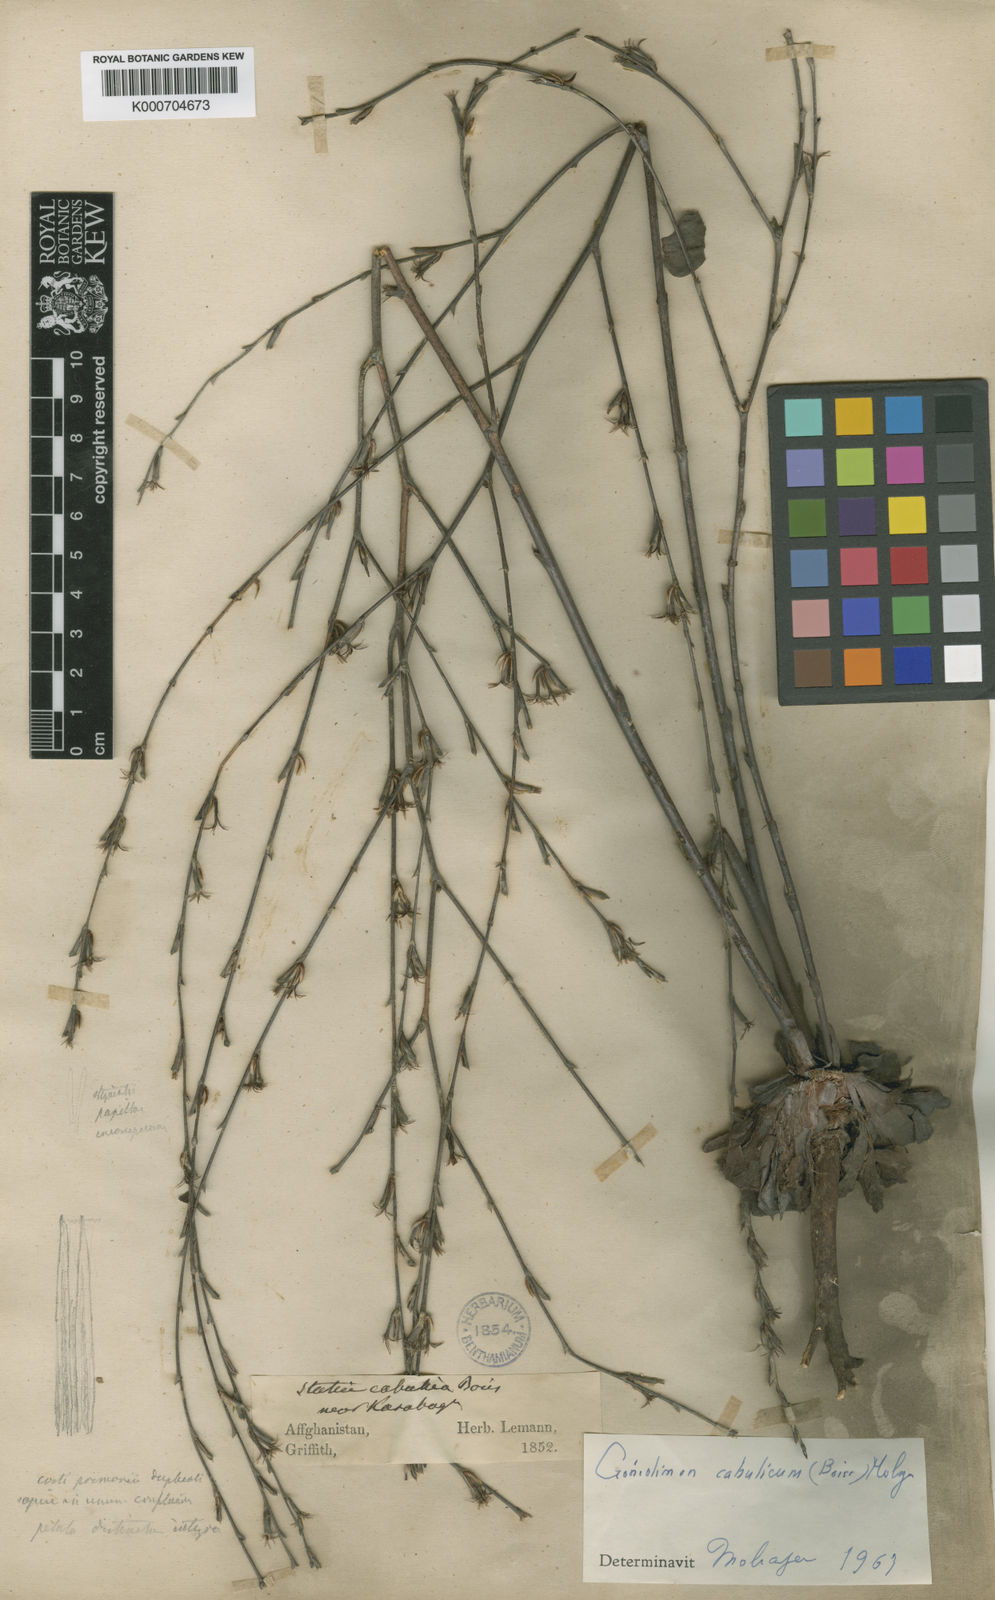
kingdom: Plantae
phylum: Tracheophyta
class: Magnoliopsida
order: Caryophyllales
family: Plumbaginaceae
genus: Bukiniczia
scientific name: Bukiniczia cabulica
